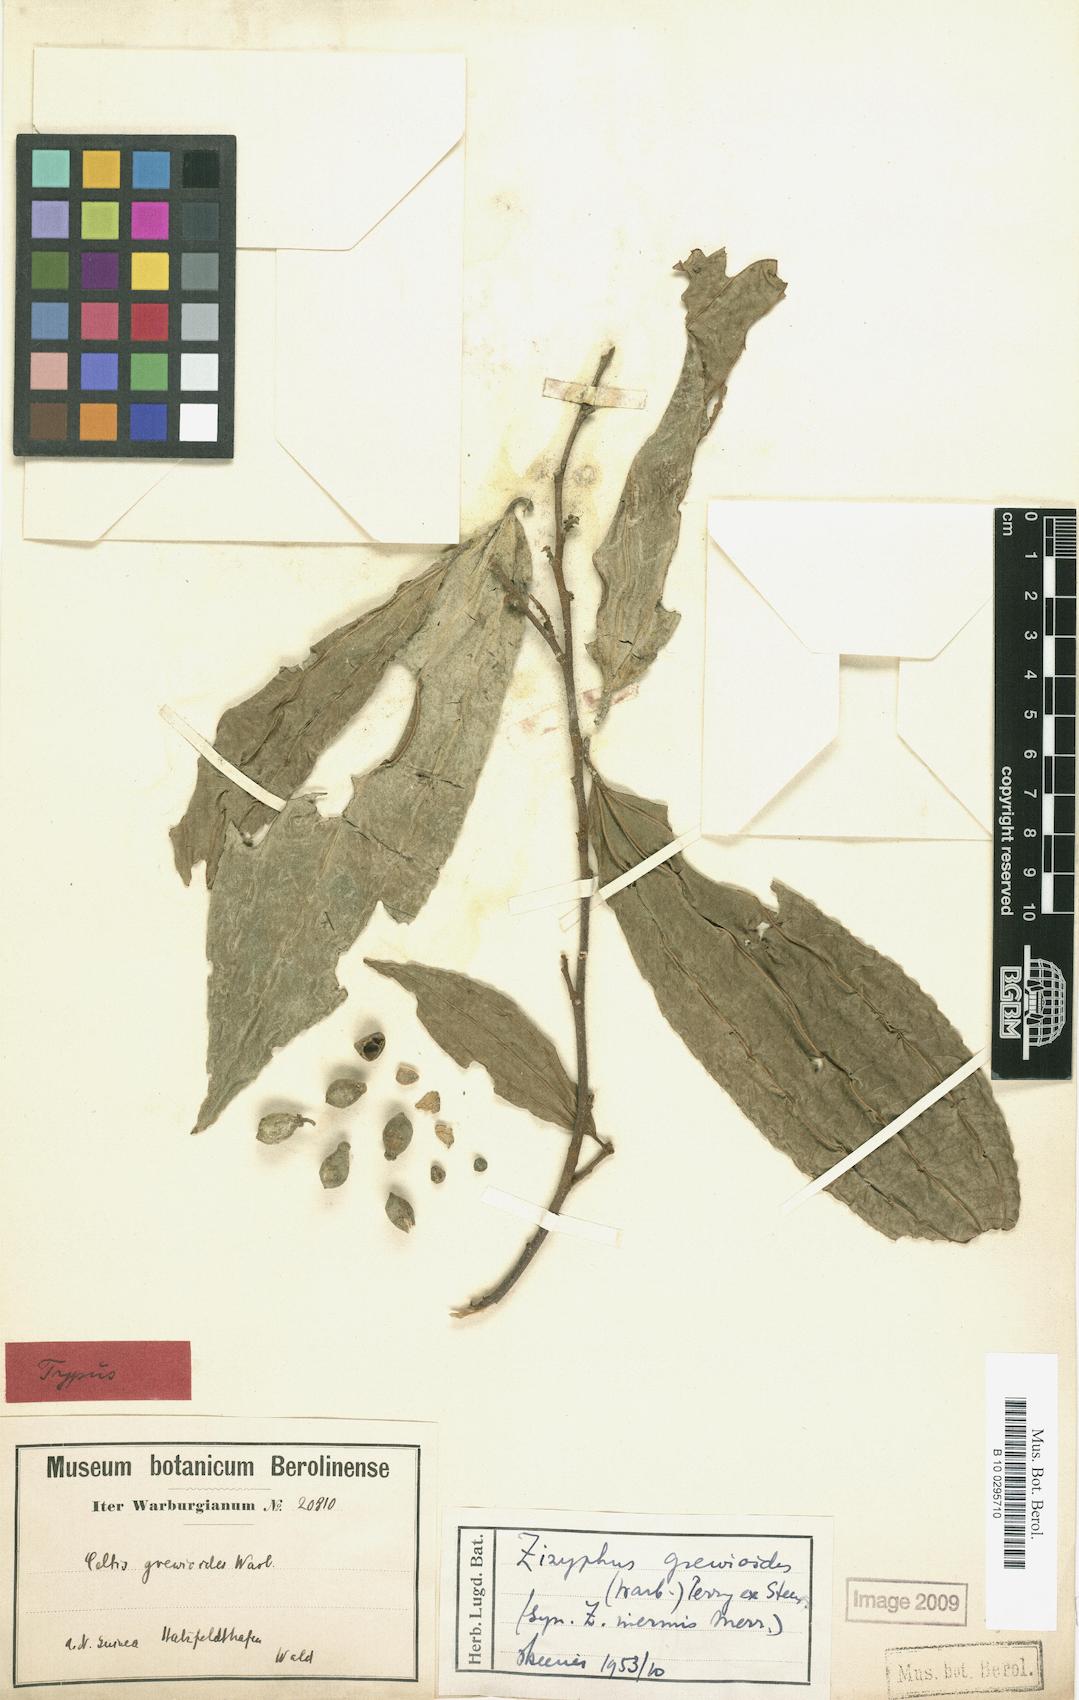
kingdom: Plantae
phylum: Tracheophyta
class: Magnoliopsida
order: Rosales
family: Rhamnaceae
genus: Ziziphus
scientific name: Ziziphus angustifolia
